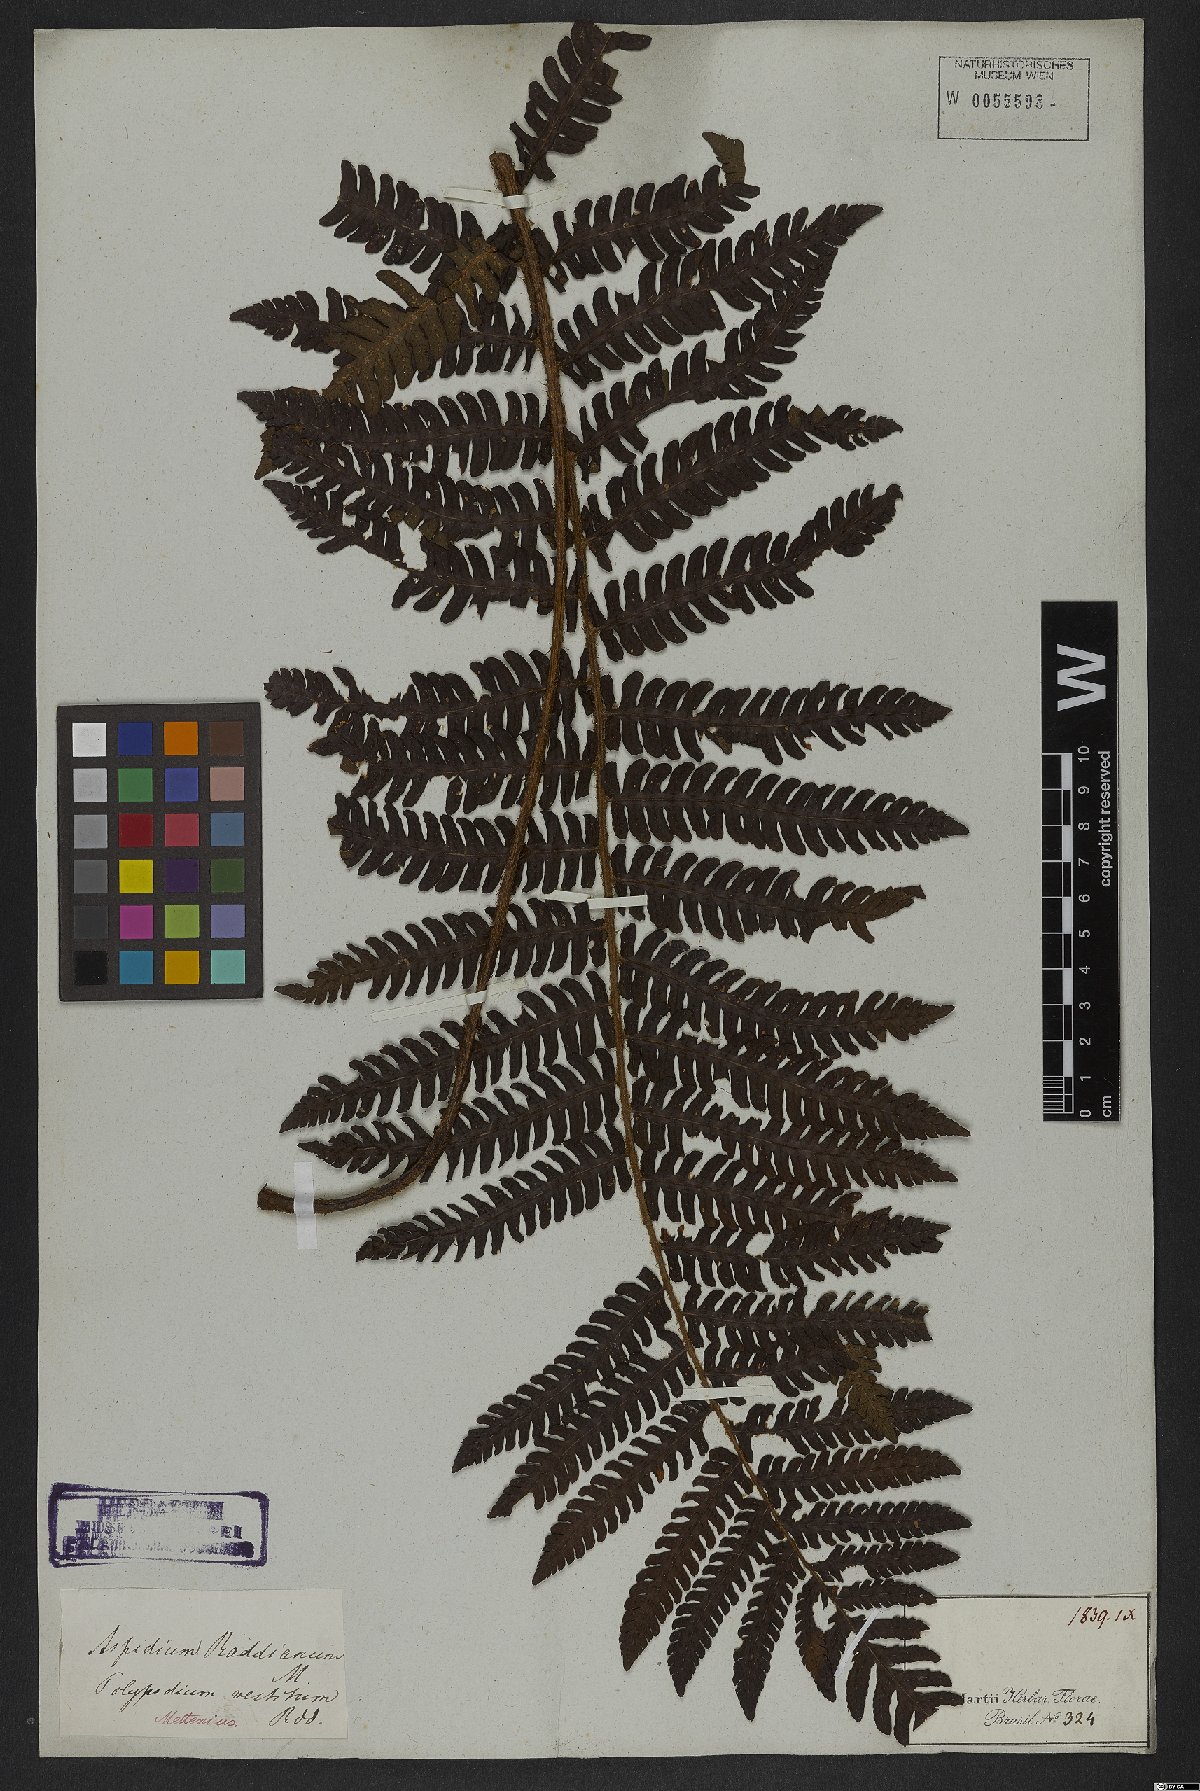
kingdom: Plantae
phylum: Tracheophyta
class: Polypodiopsida
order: Polypodiales
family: Thelypteridaceae
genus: Glaphyropteridopsis
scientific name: Glaphyropteridopsis erubescens
